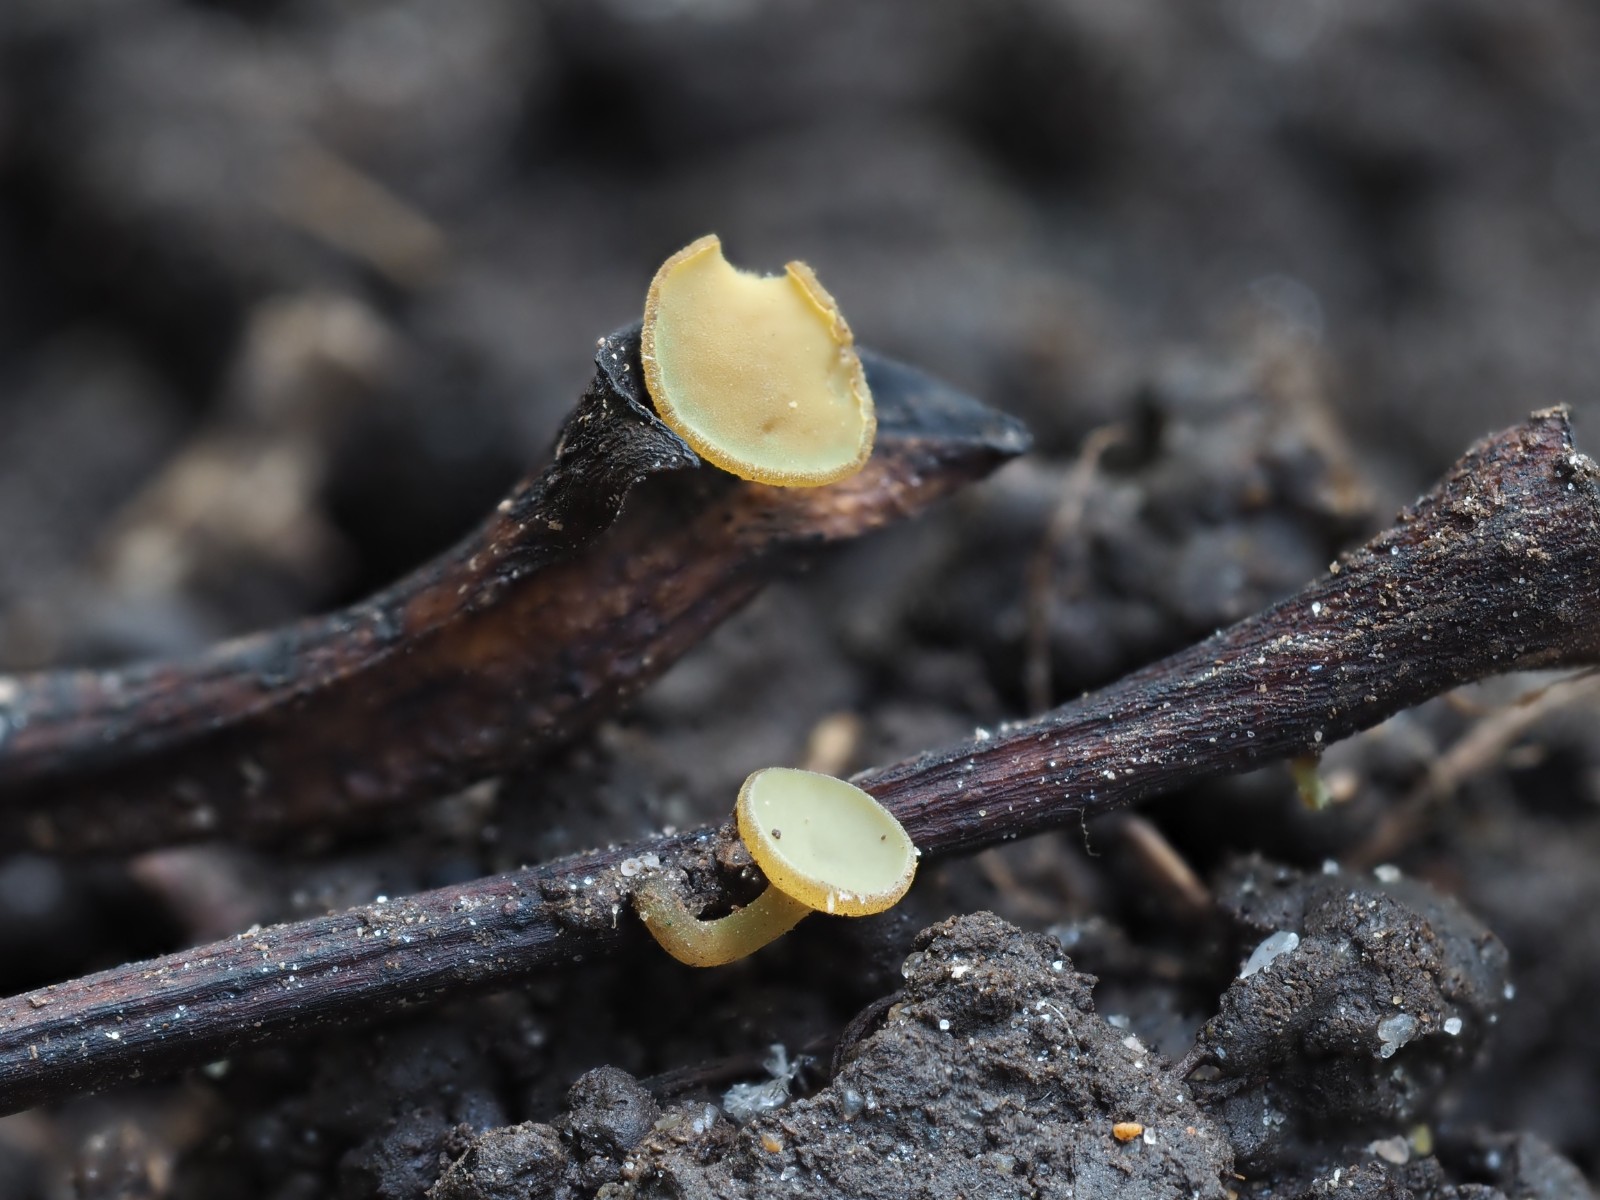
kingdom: Fungi
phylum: Ascomycota
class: Leotiomycetes
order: Helotiales
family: Rutstroemiaceae
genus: Lanzia
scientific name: Lanzia luteovirescens
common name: olivengul brunskive
